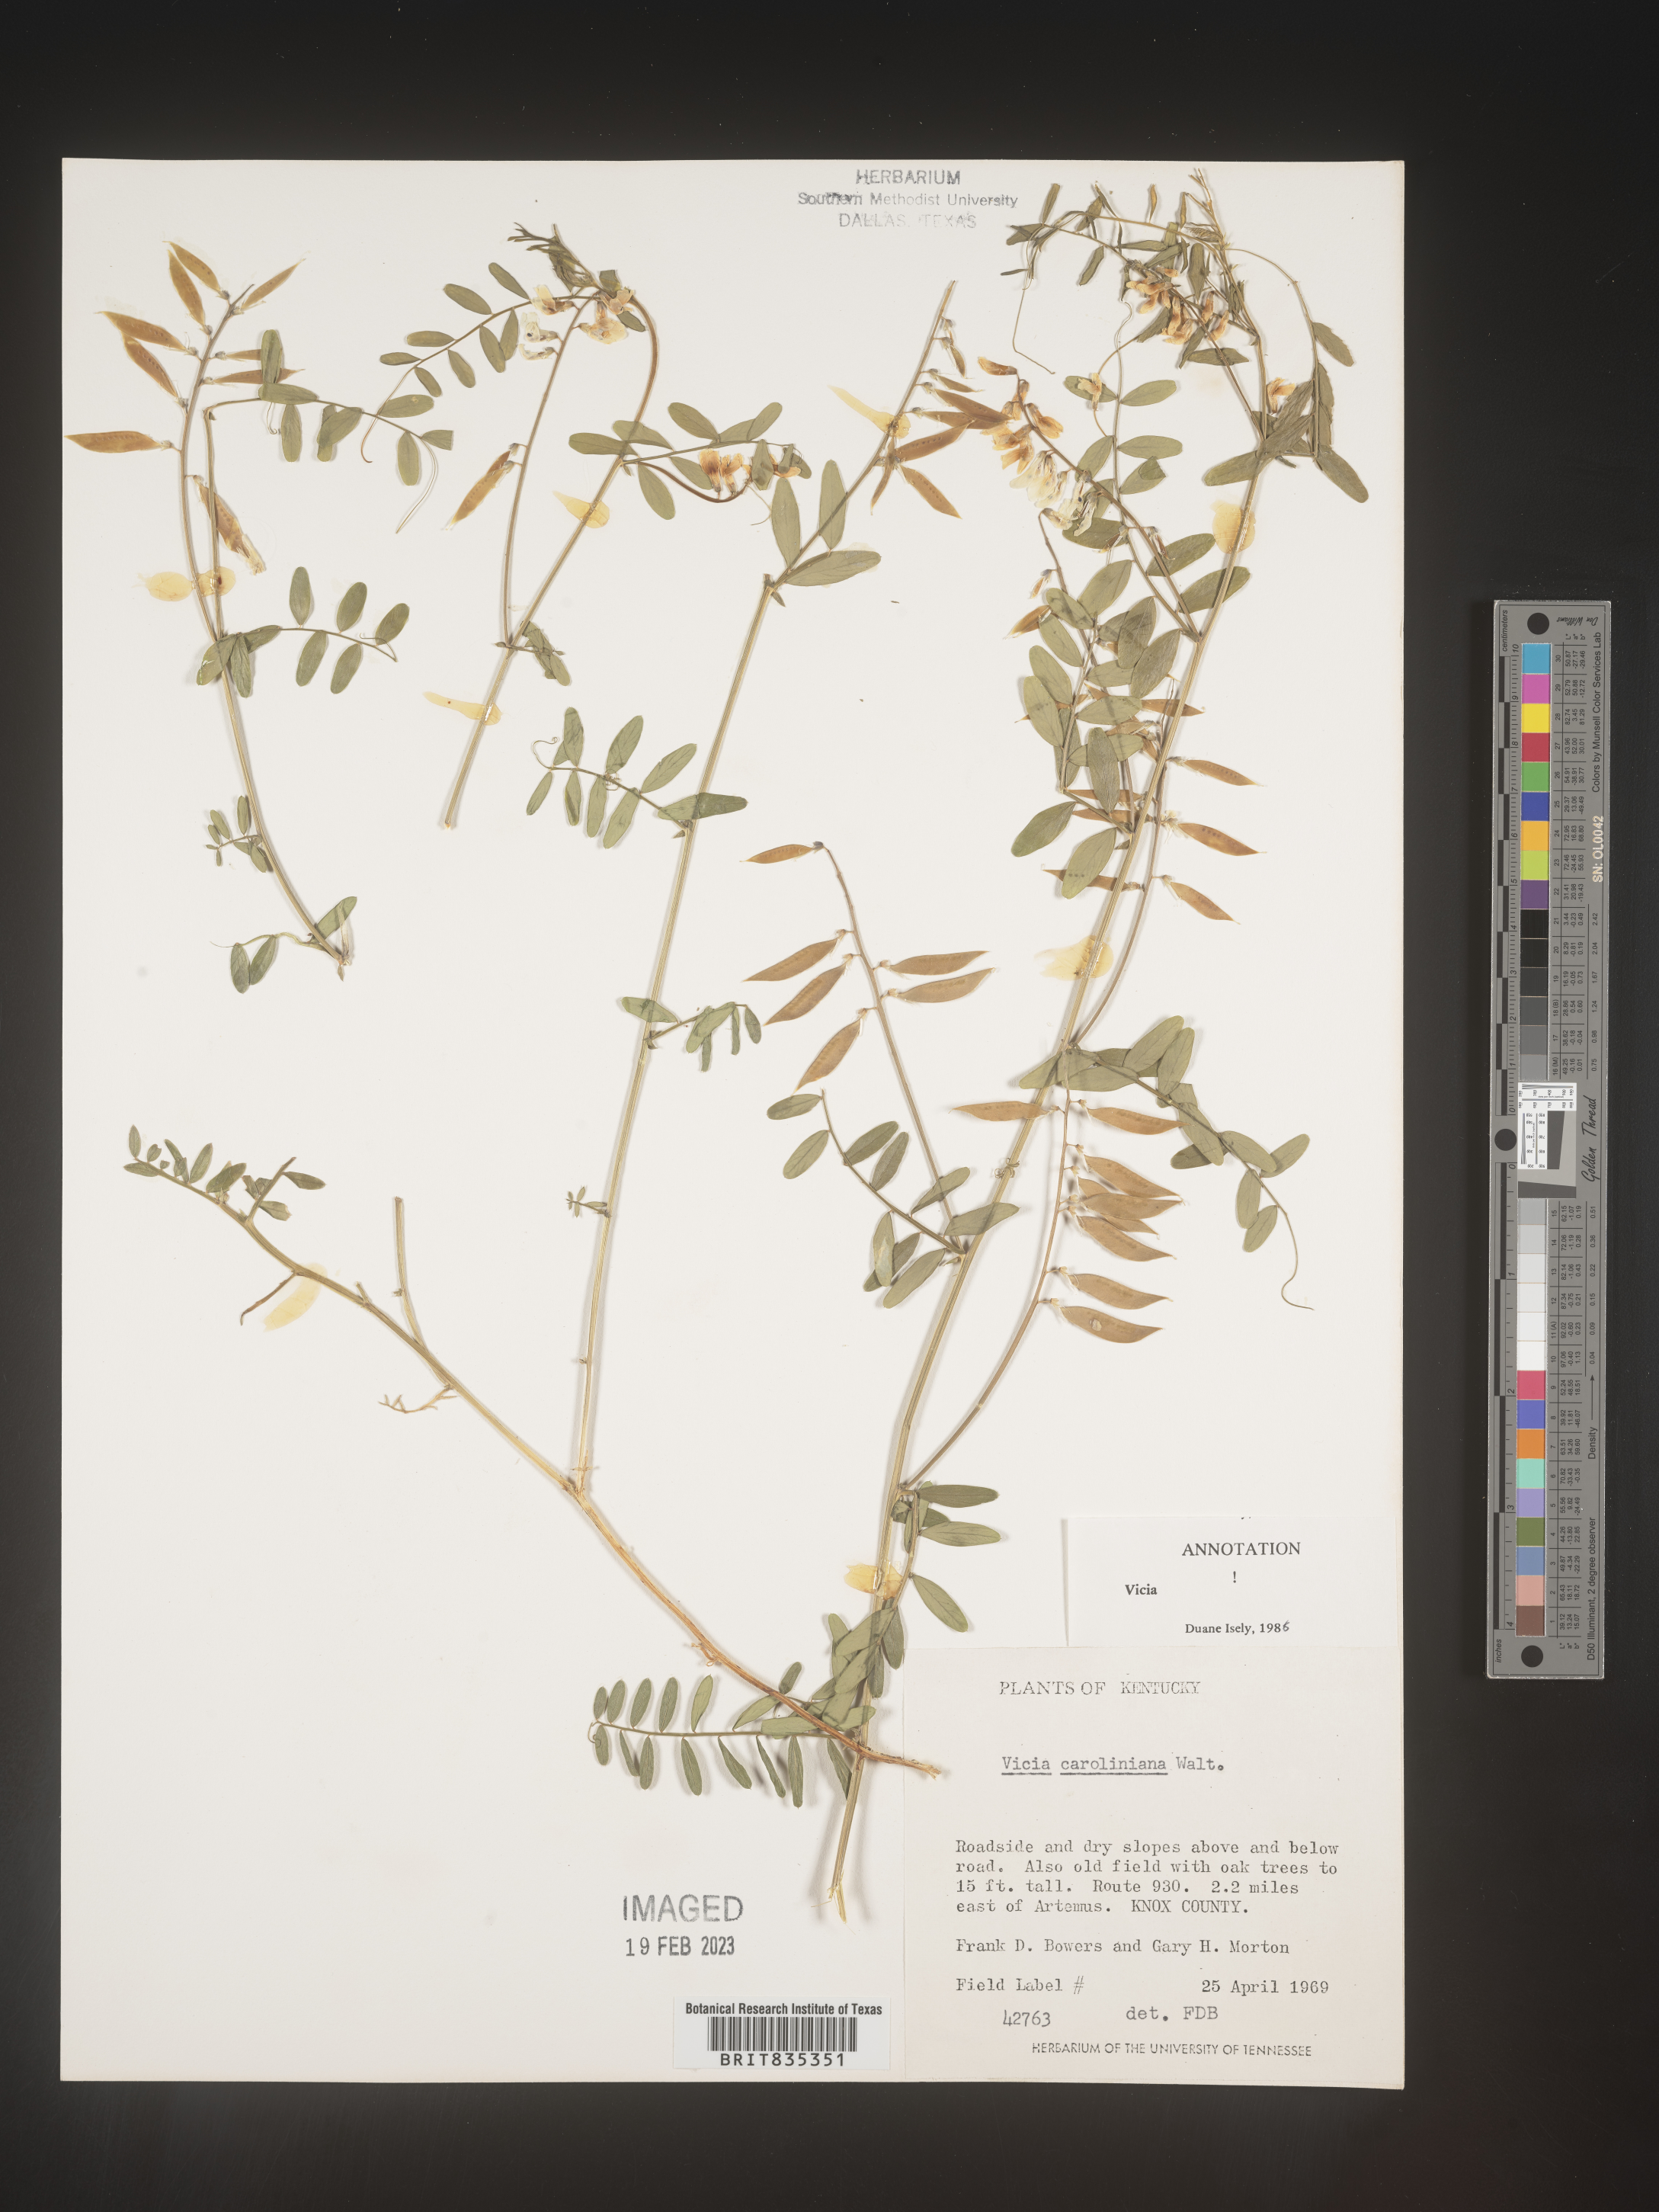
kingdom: Plantae
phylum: Tracheophyta
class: Magnoliopsida
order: Fabales
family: Fabaceae
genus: Vicia
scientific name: Vicia caroliniana
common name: Carolina vetch
